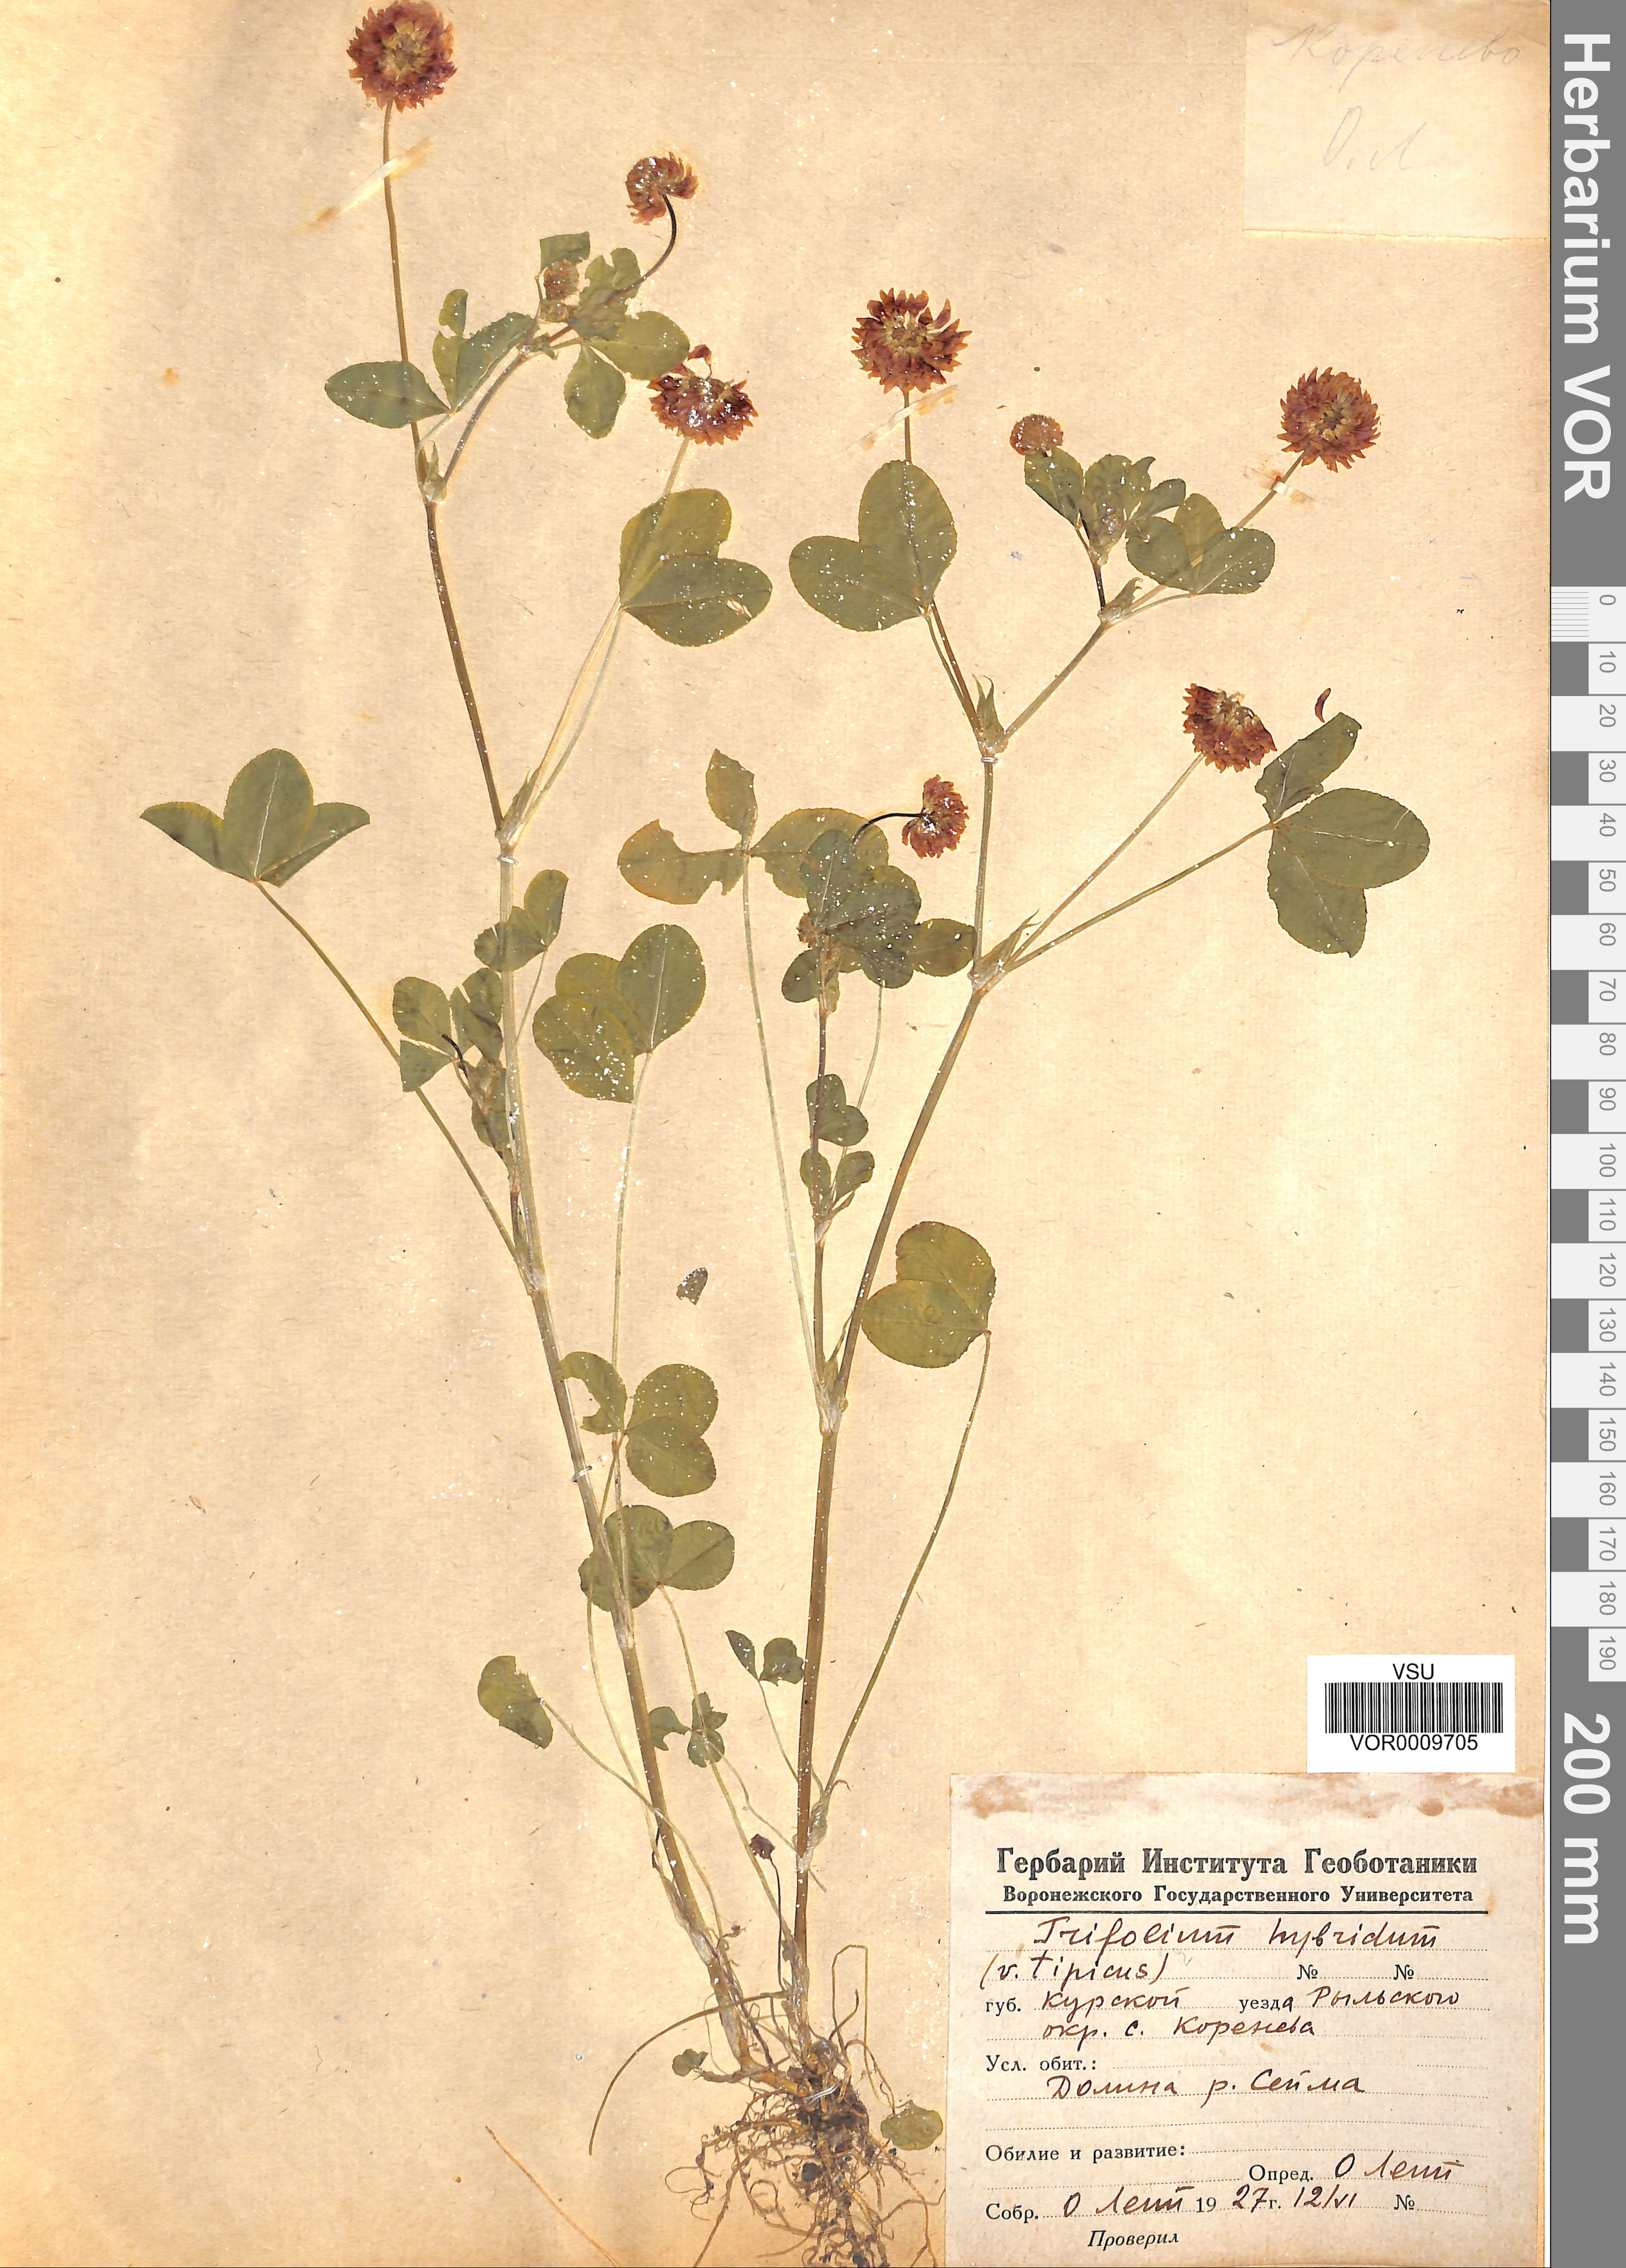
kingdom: Plantae
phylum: Tracheophyta
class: Magnoliopsida
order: Fabales
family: Fabaceae
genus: Trifolium
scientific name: Trifolium hybridum
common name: Alsike clover
